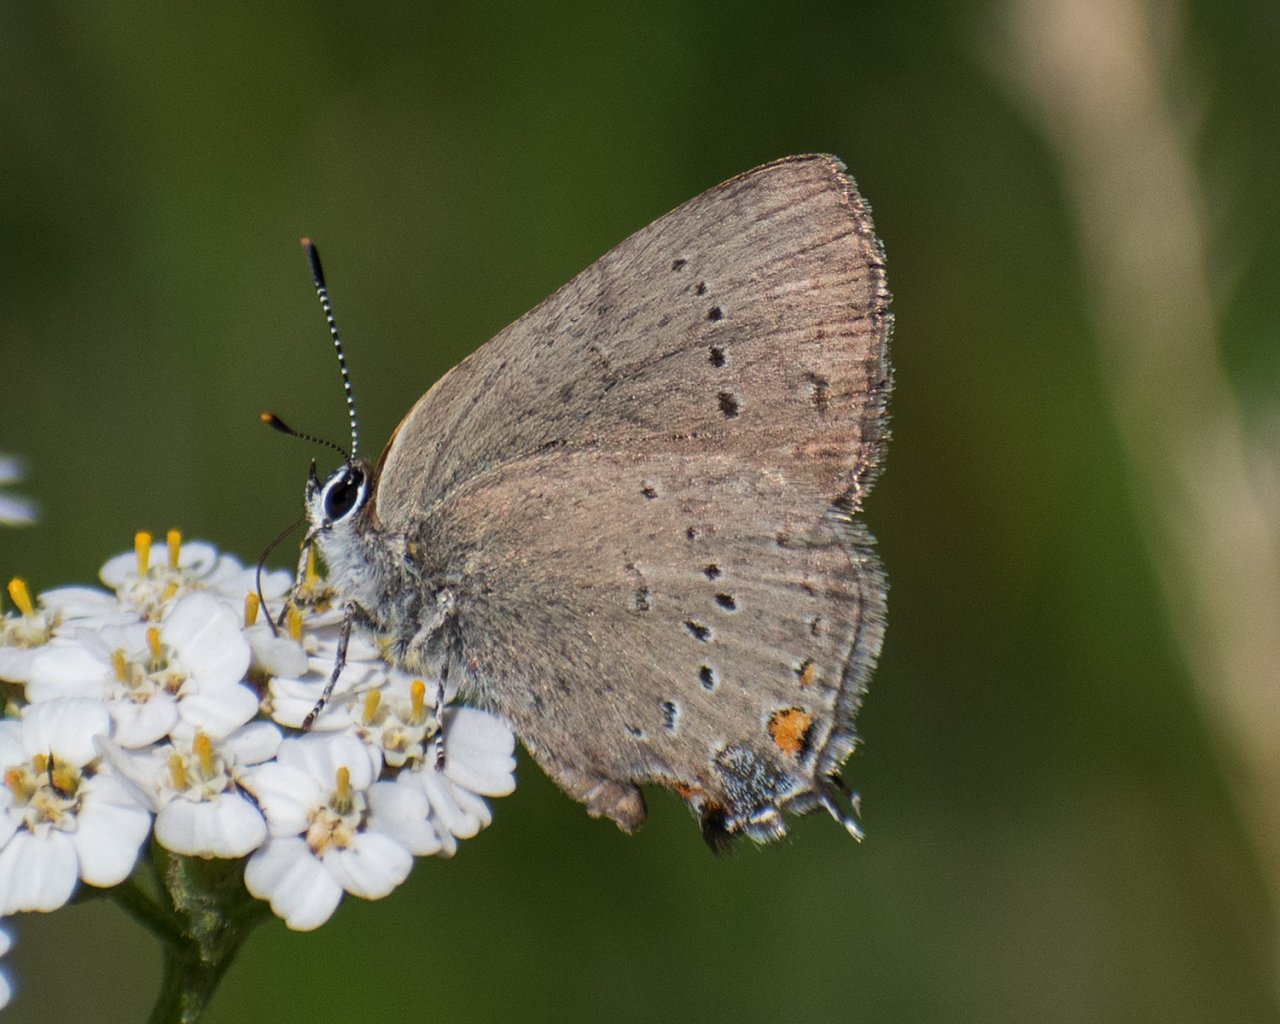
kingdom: Animalia
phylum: Arthropoda
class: Insecta
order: Lepidoptera
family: Lycaenidae
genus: Strymon
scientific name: Strymon sylvinus
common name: Sylvan Hairstreak
